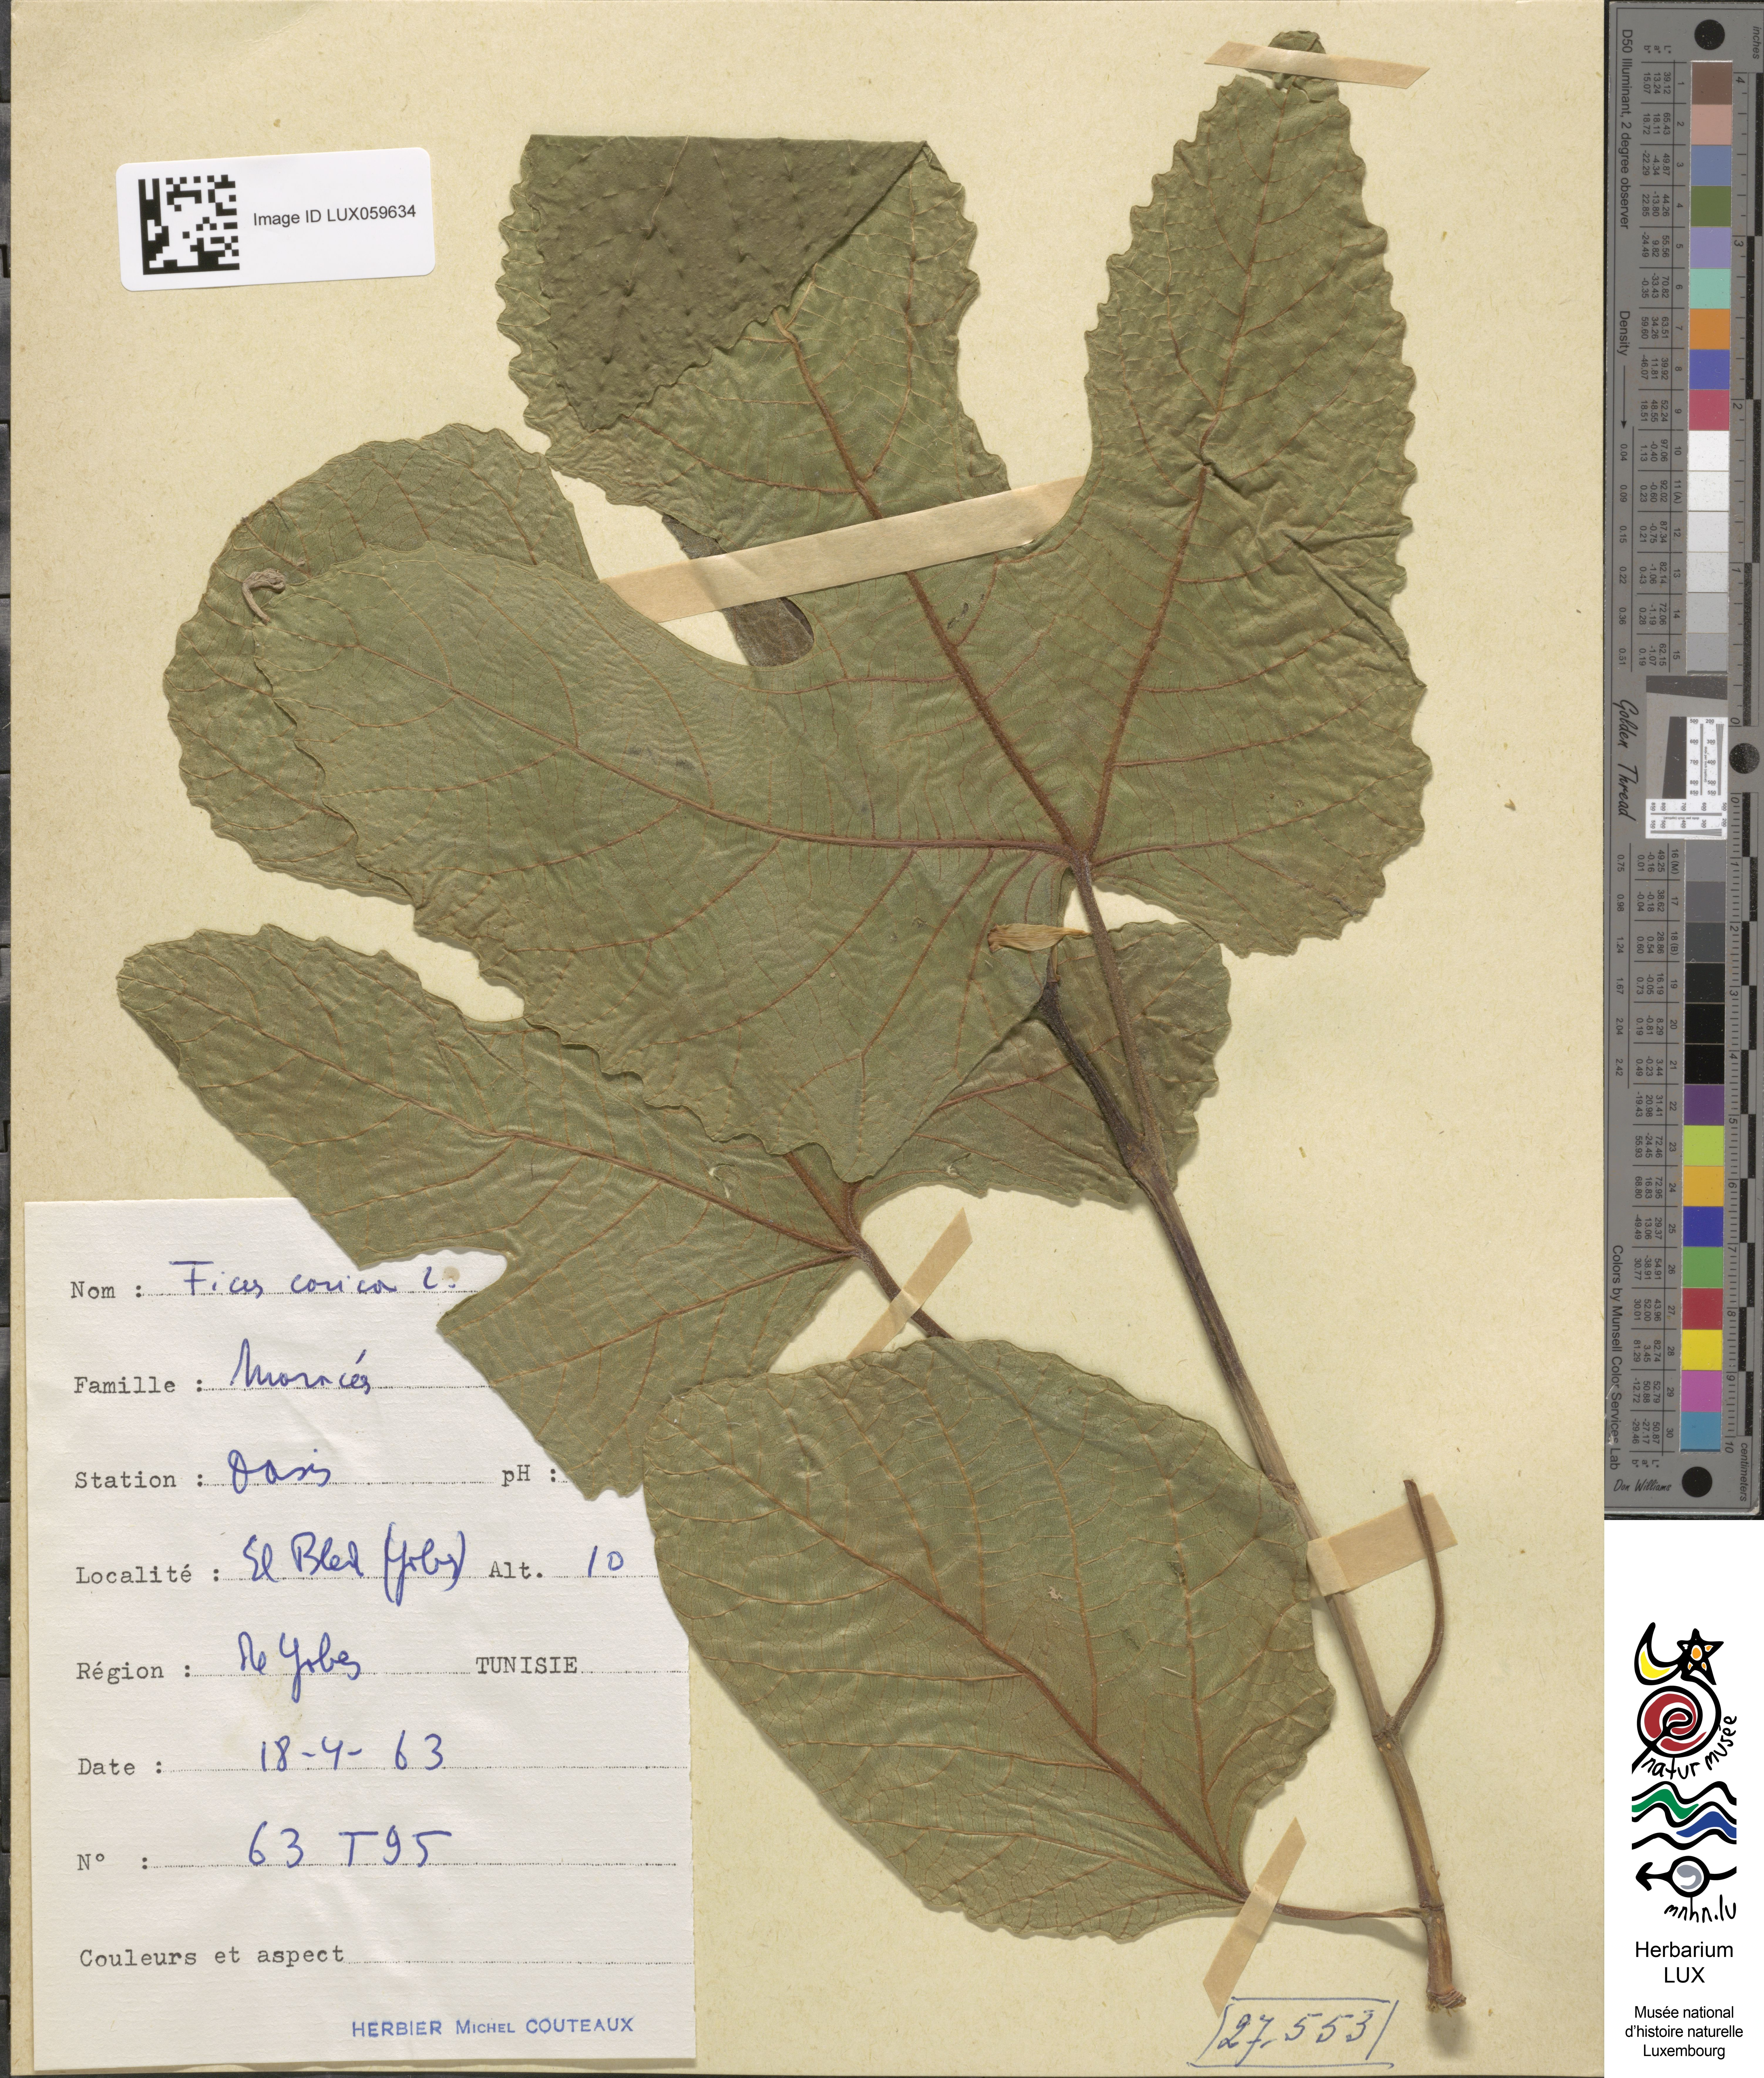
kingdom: Plantae
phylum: Tracheophyta
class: Magnoliopsida
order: Rosales
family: Moraceae
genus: Ficus
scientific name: Ficus carica
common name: Fig
